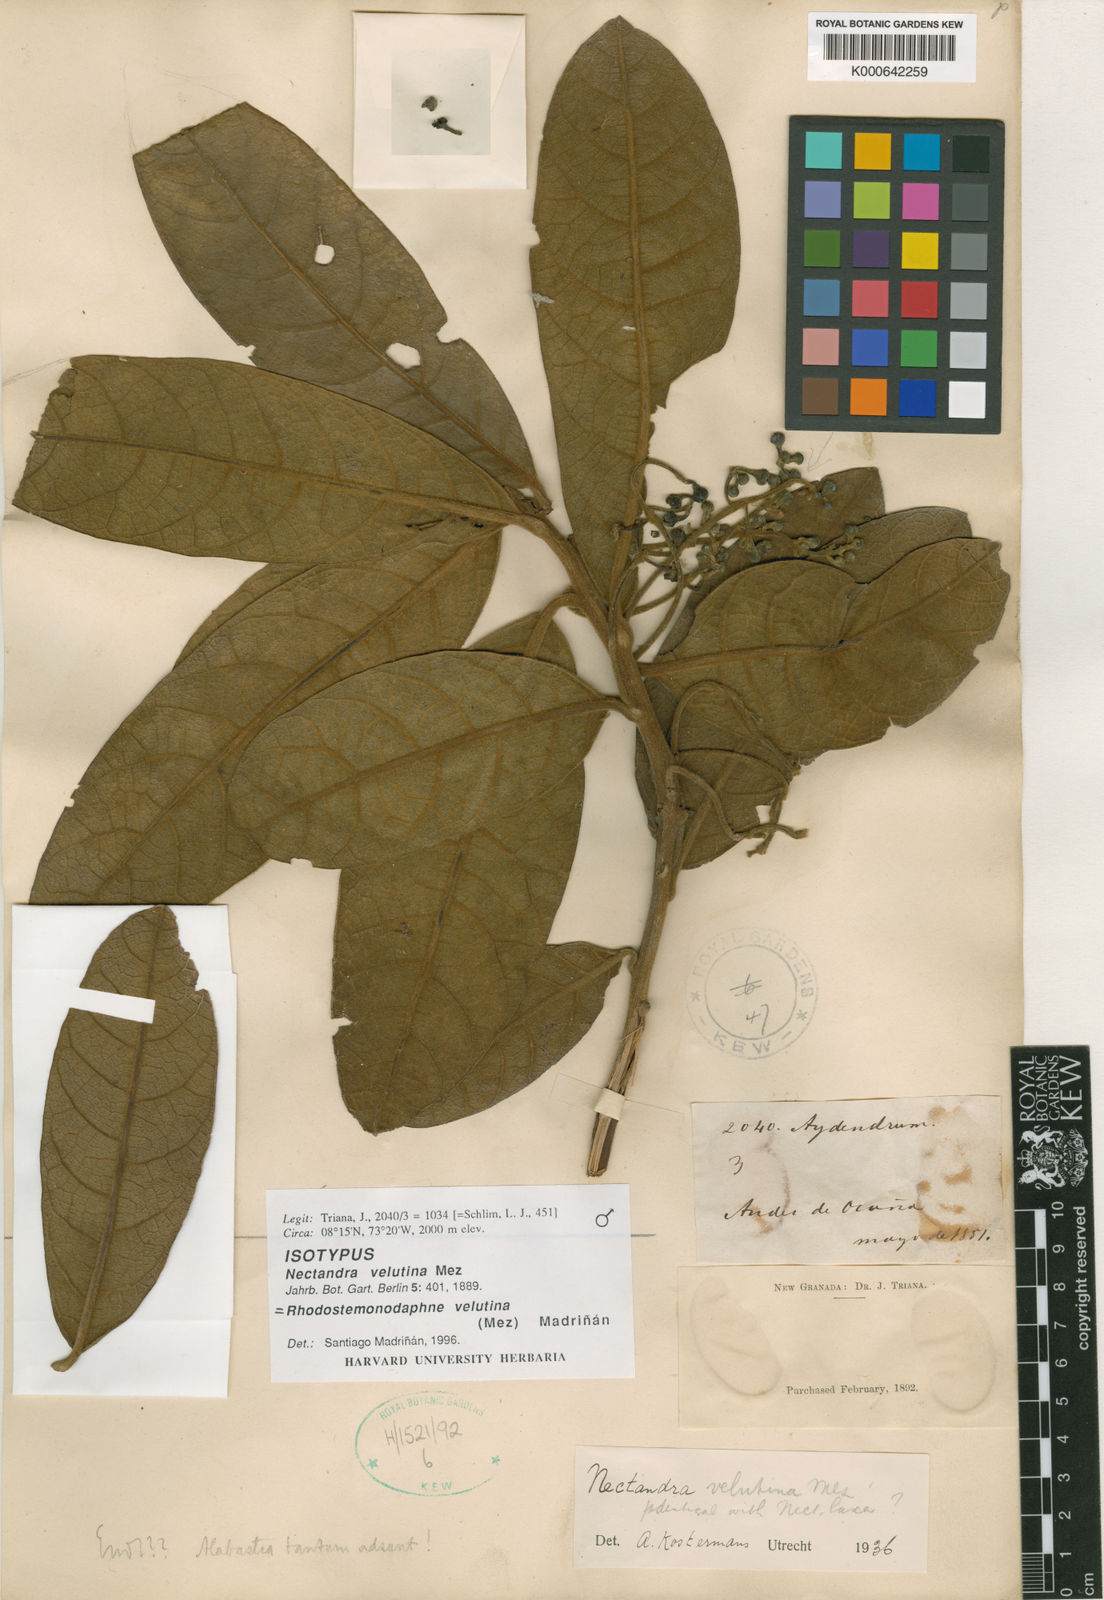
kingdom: Plantae
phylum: Tracheophyta
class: Magnoliopsida
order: Ericales
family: Ericaceae
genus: Rhododendron
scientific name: Rhododendron
